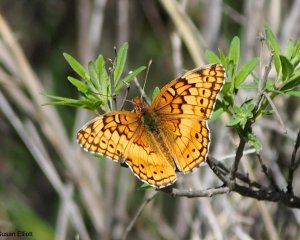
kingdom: Animalia
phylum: Arthropoda
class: Insecta
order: Lepidoptera
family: Nymphalidae
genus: Euptoieta
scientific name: Euptoieta claudia
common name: Variegated Fritillary
